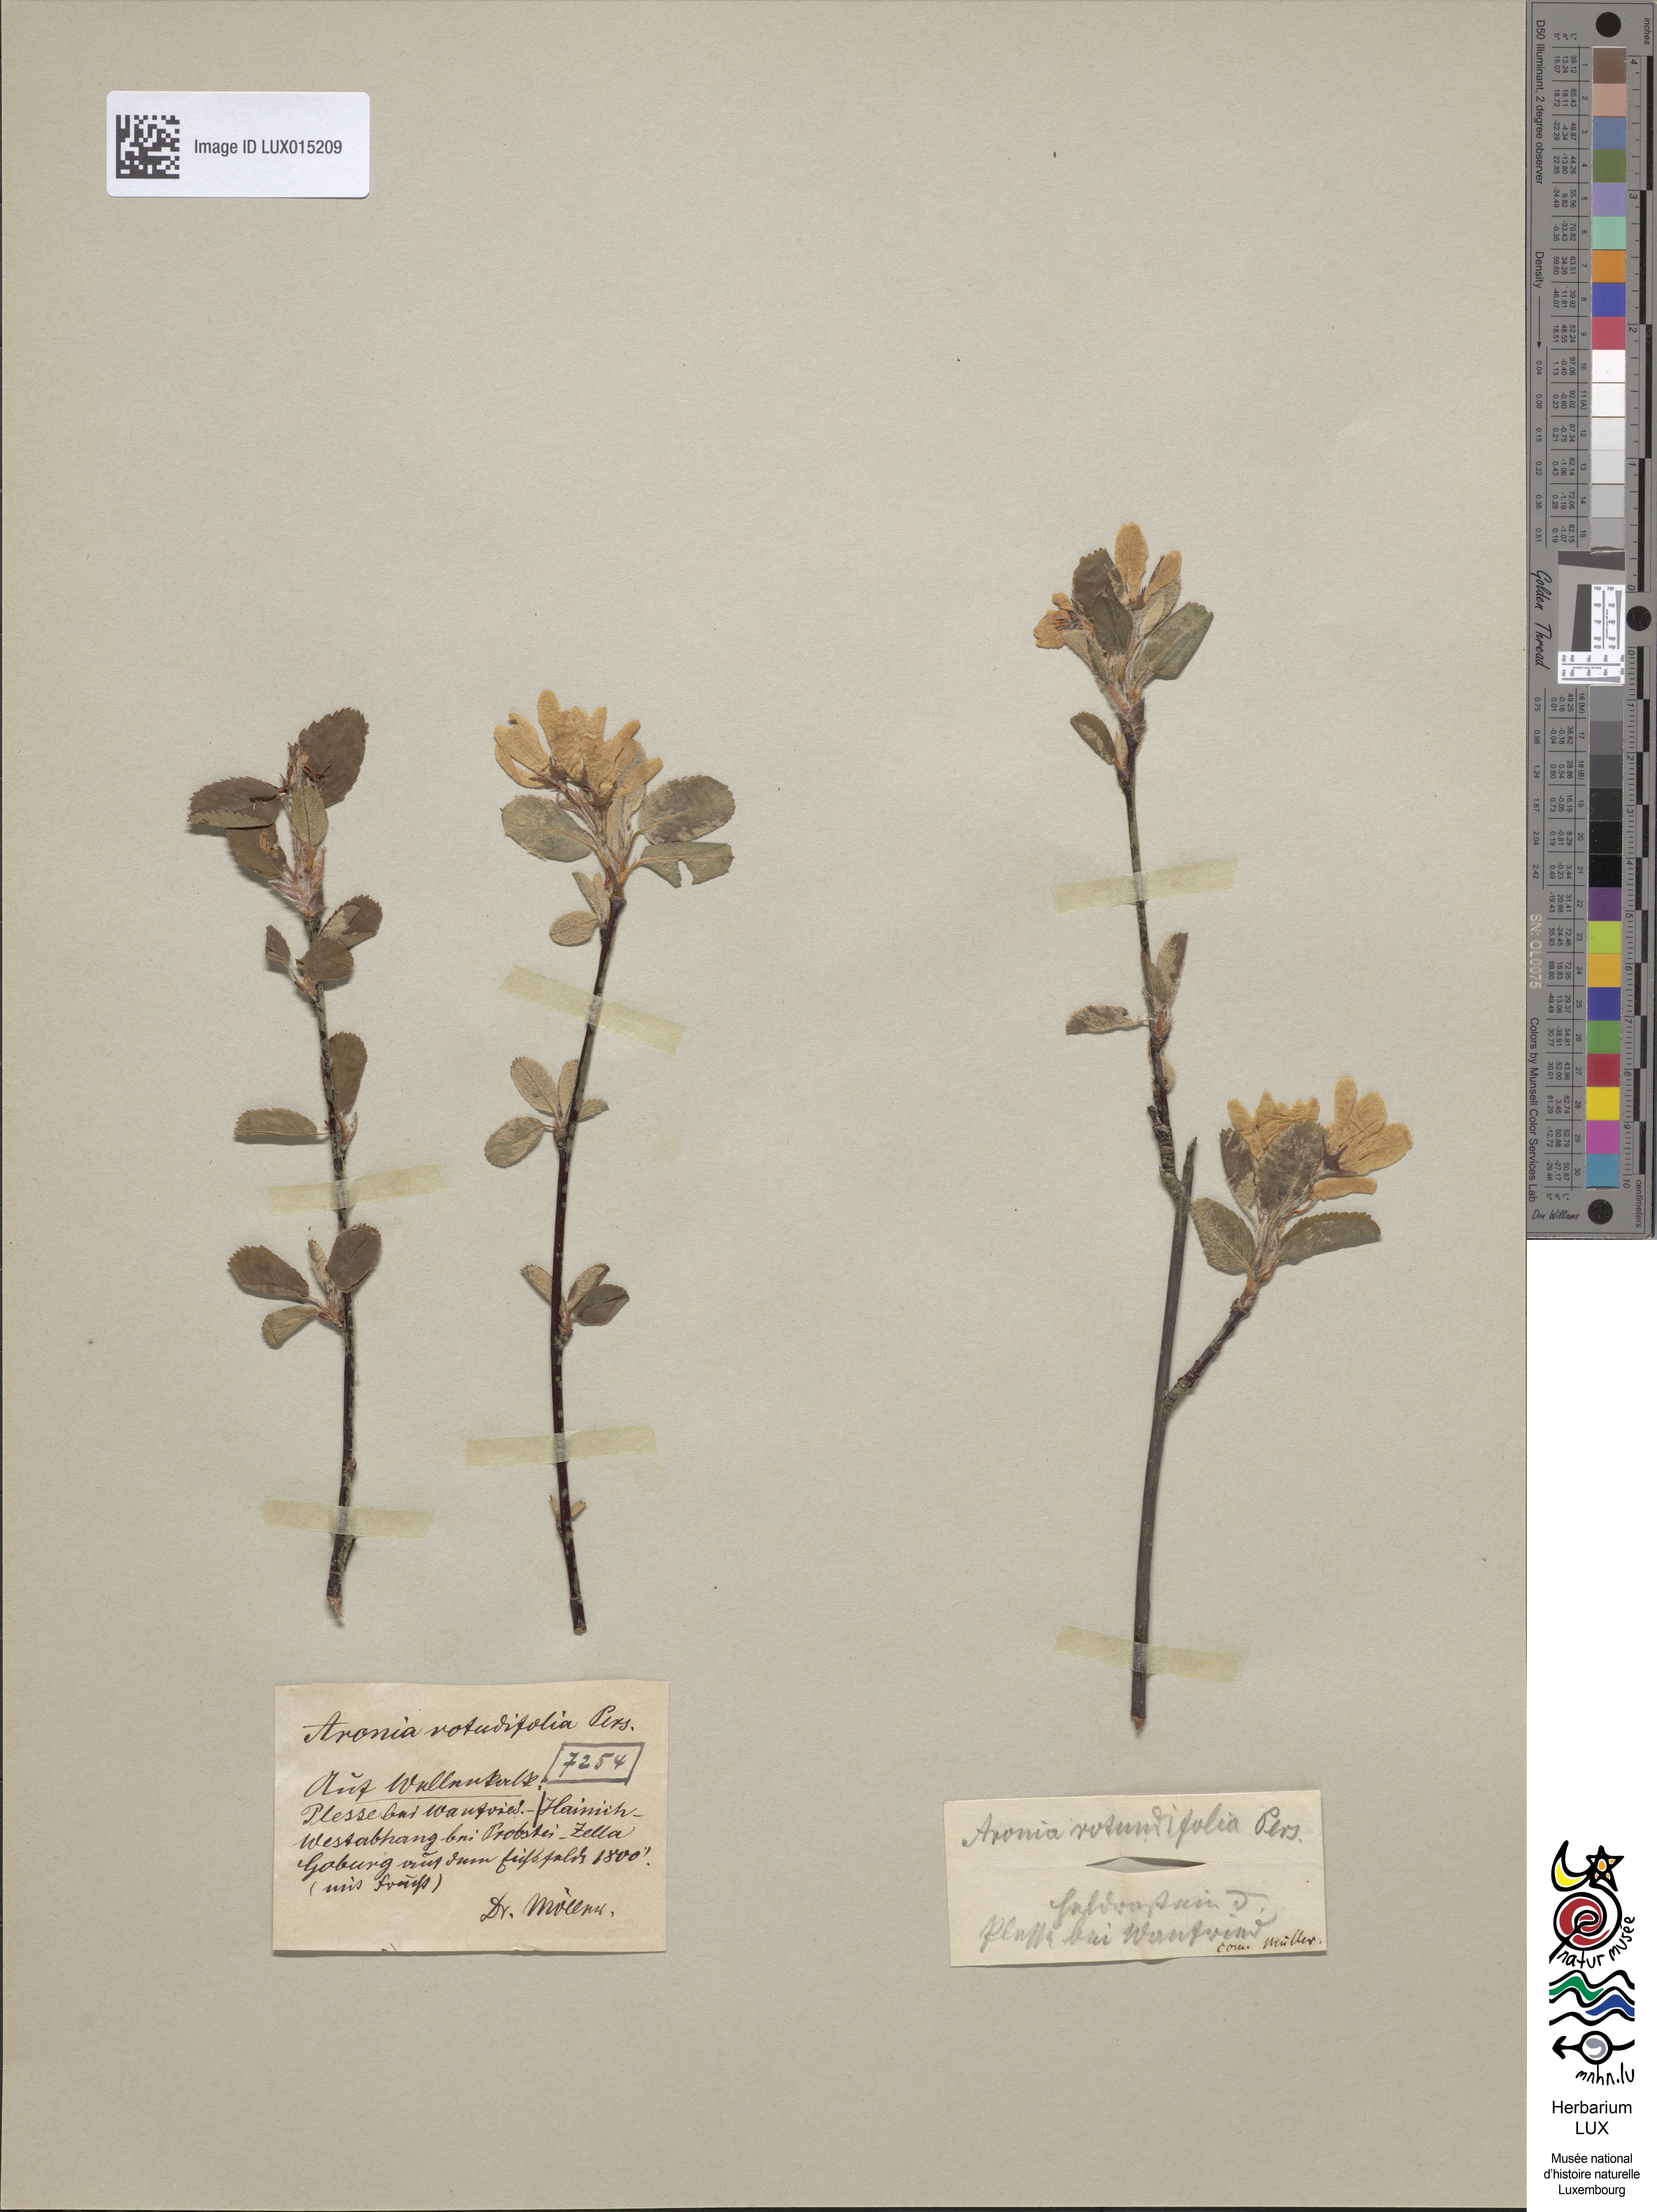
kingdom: Plantae
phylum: Tracheophyta
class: Magnoliopsida
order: Rosales
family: Rosaceae
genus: Amelanchier
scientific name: Amelanchier ovalis
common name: Serviceberry
